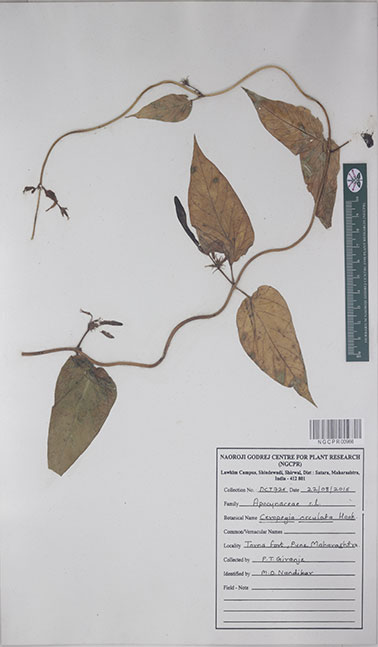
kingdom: Plantae
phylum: Tracheophyta
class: Magnoliopsida
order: Gentianales
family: Apocynaceae
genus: Ceropegia
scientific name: Ceropegia oculata
